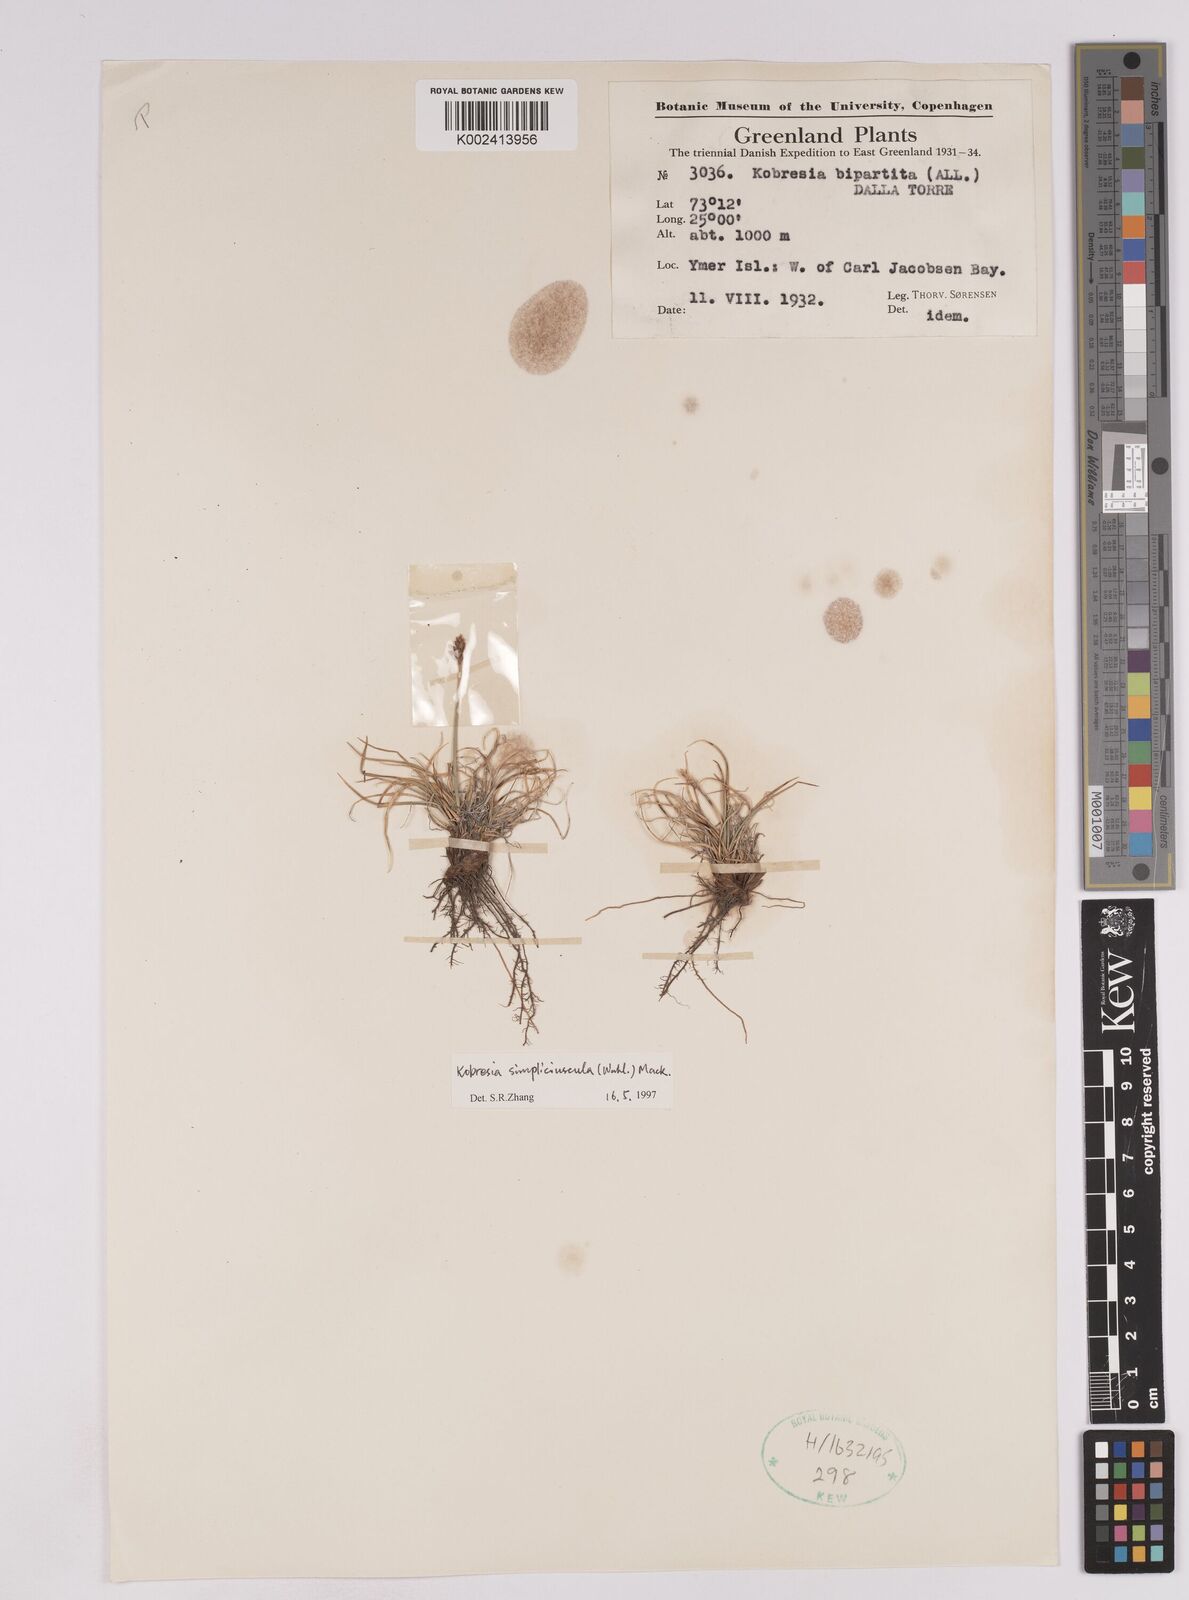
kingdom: Plantae
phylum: Tracheophyta
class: Liliopsida
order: Poales
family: Cyperaceae
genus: Carex
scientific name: Carex simpliciuscula
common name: Simple bog sedge
